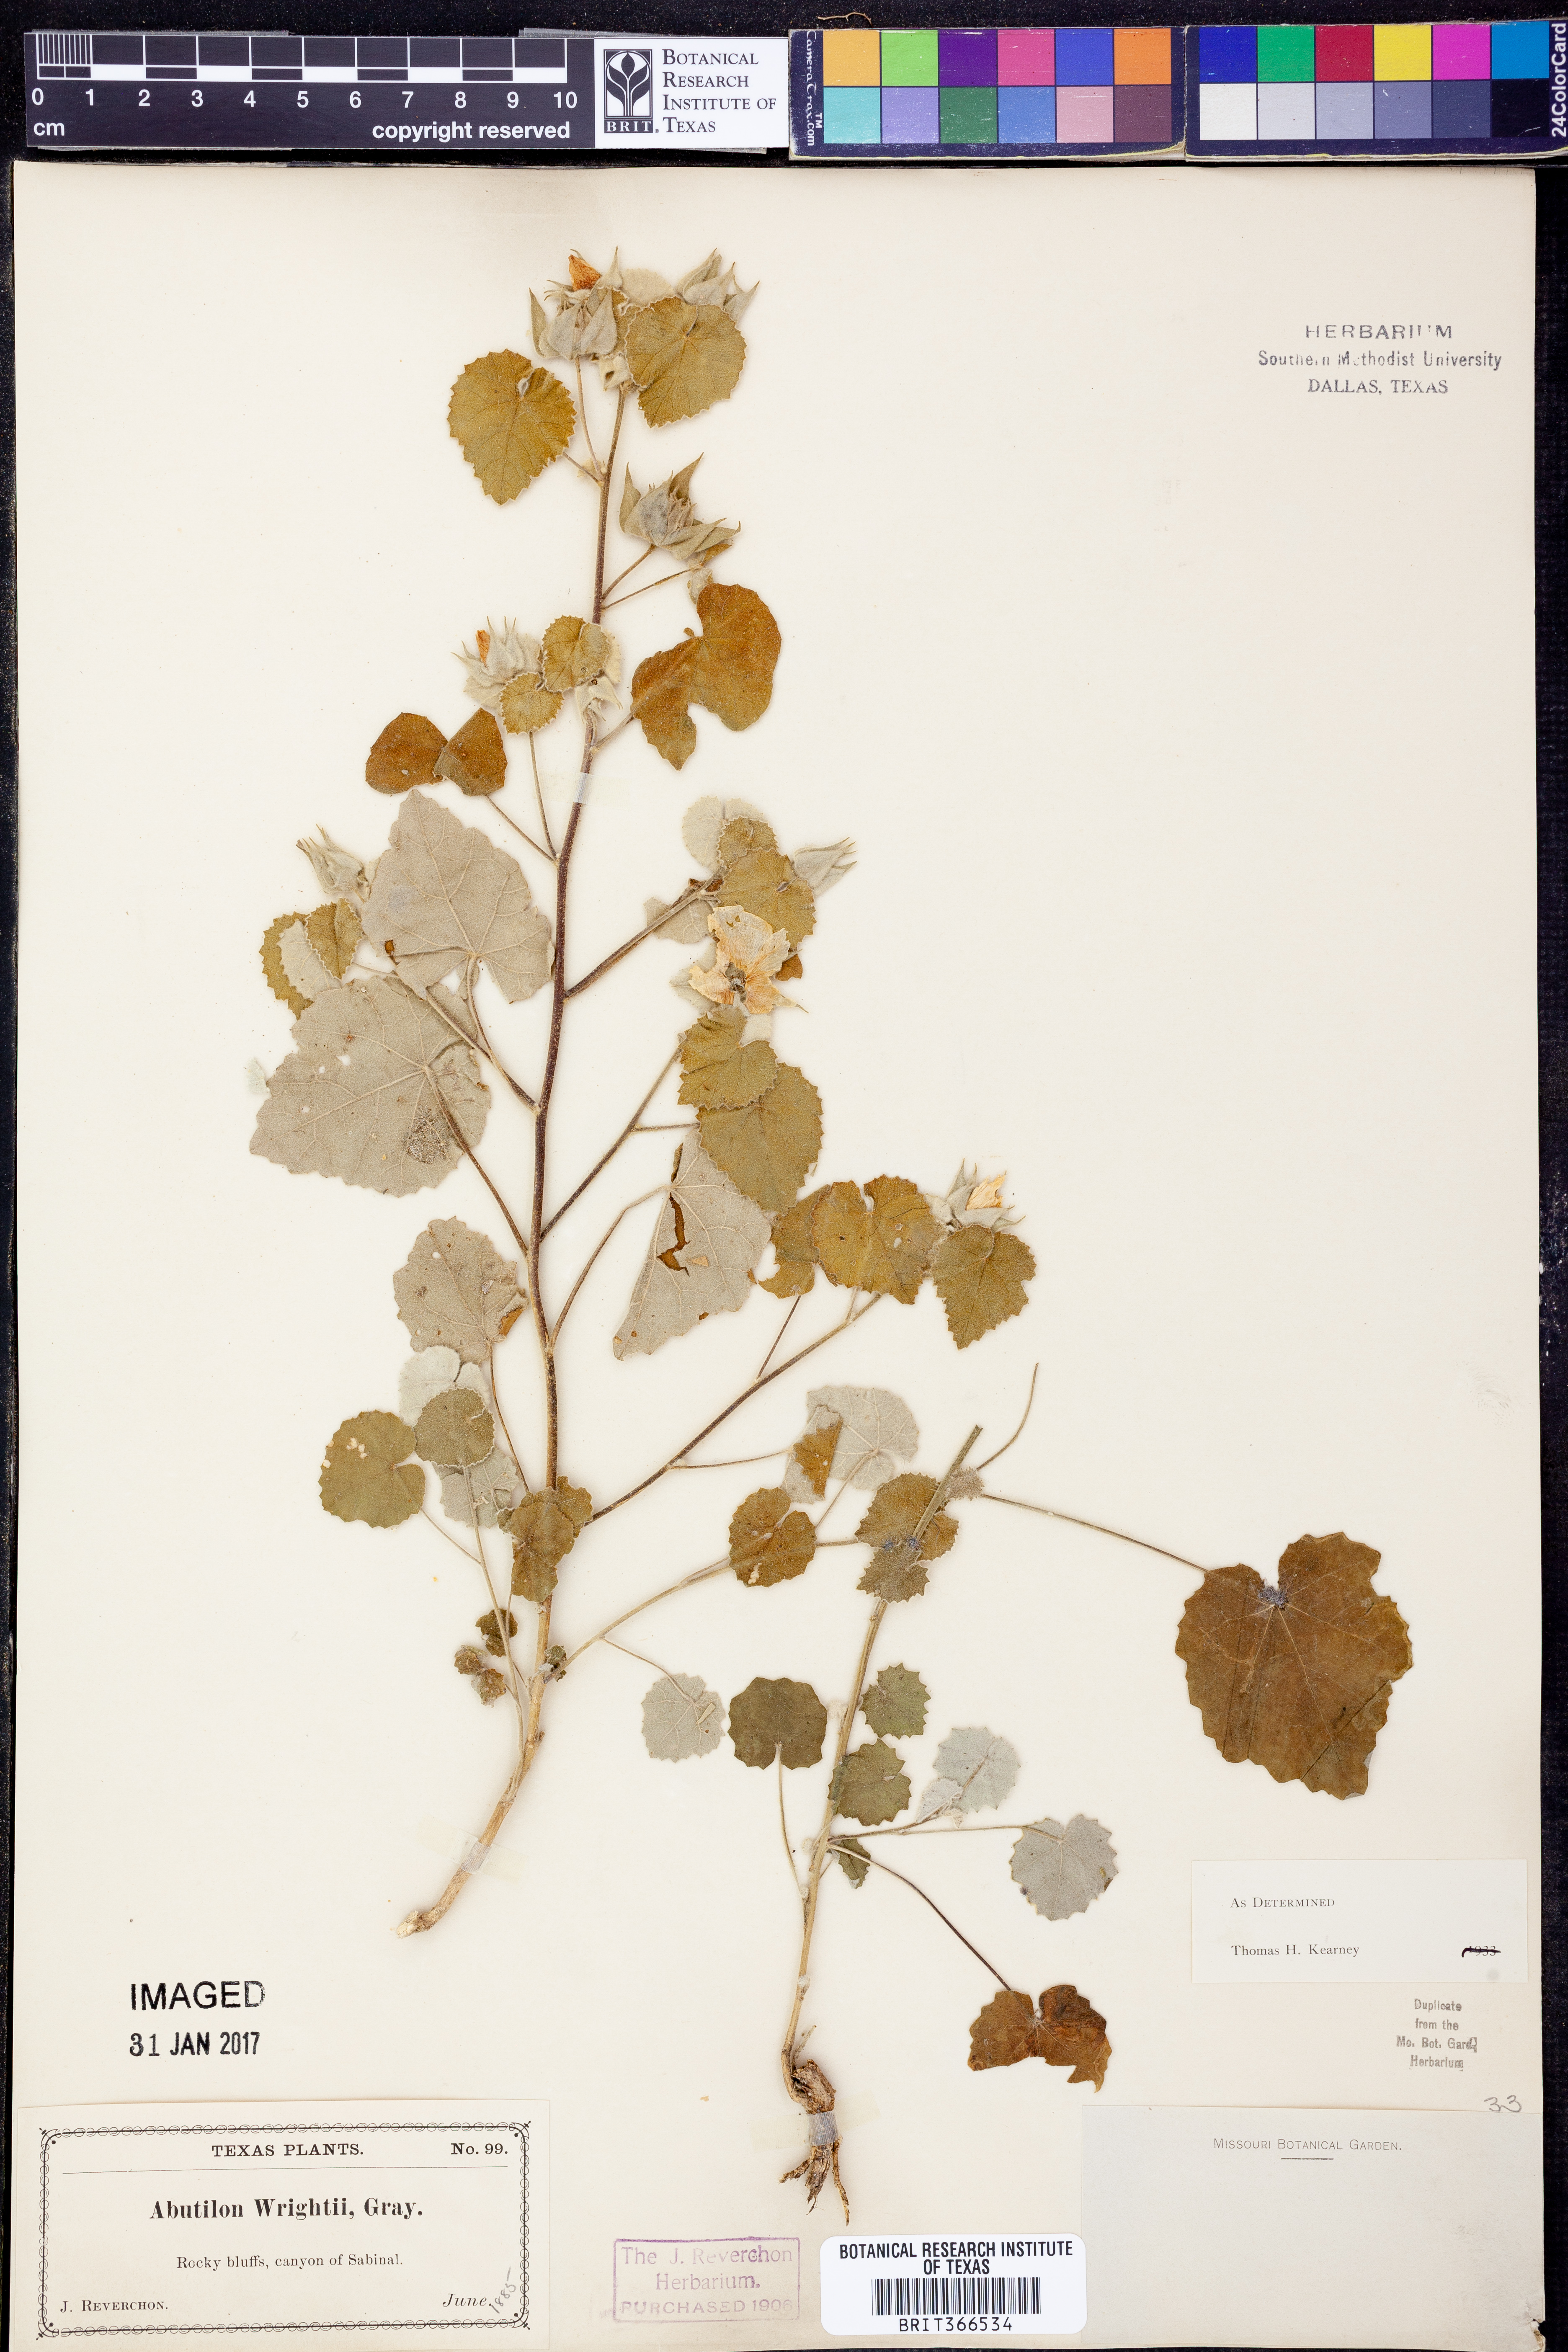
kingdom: Plantae
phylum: Tracheophyta
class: Magnoliopsida
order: Malvales
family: Malvaceae
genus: Abutilon
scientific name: Abutilon wrightii
